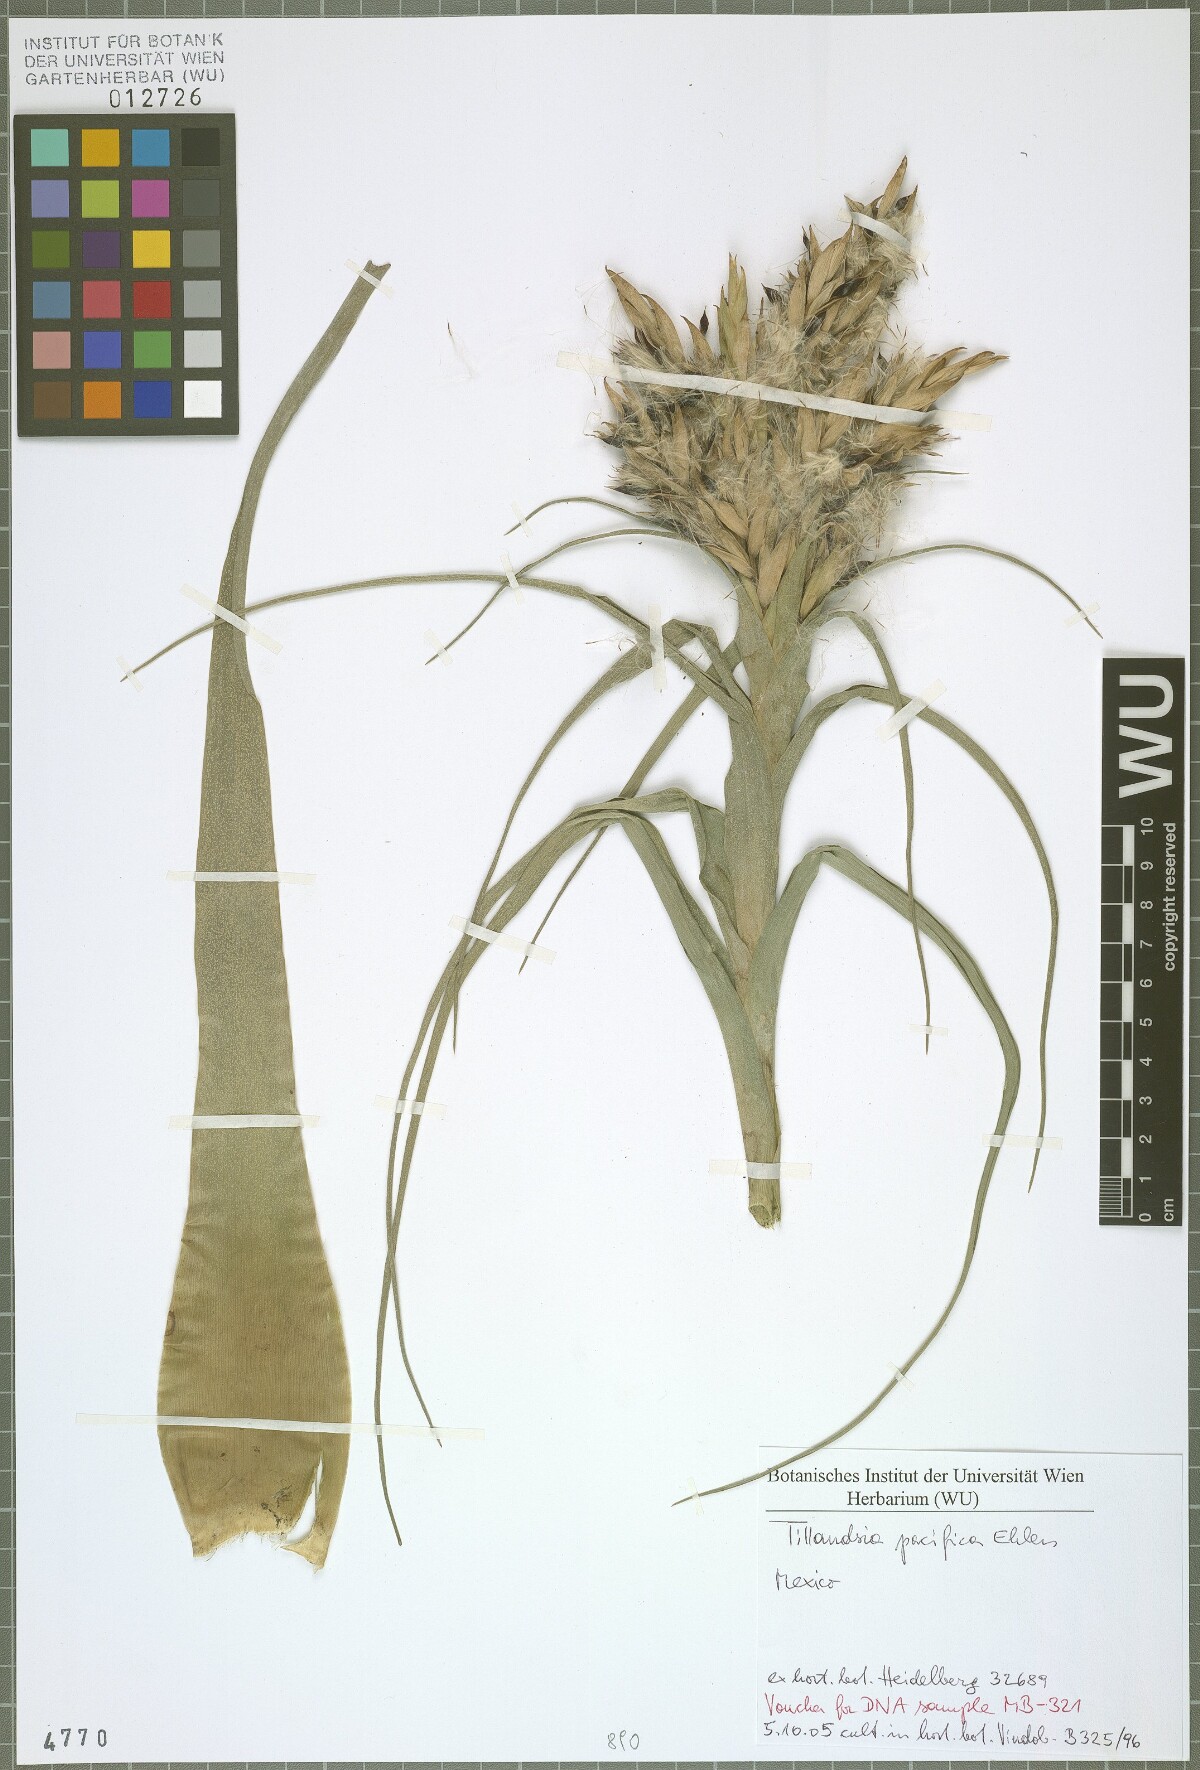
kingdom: Plantae
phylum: Tracheophyta
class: Liliopsida
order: Poales
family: Bromeliaceae
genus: Tillandsia
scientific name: Tillandsia pacifica
